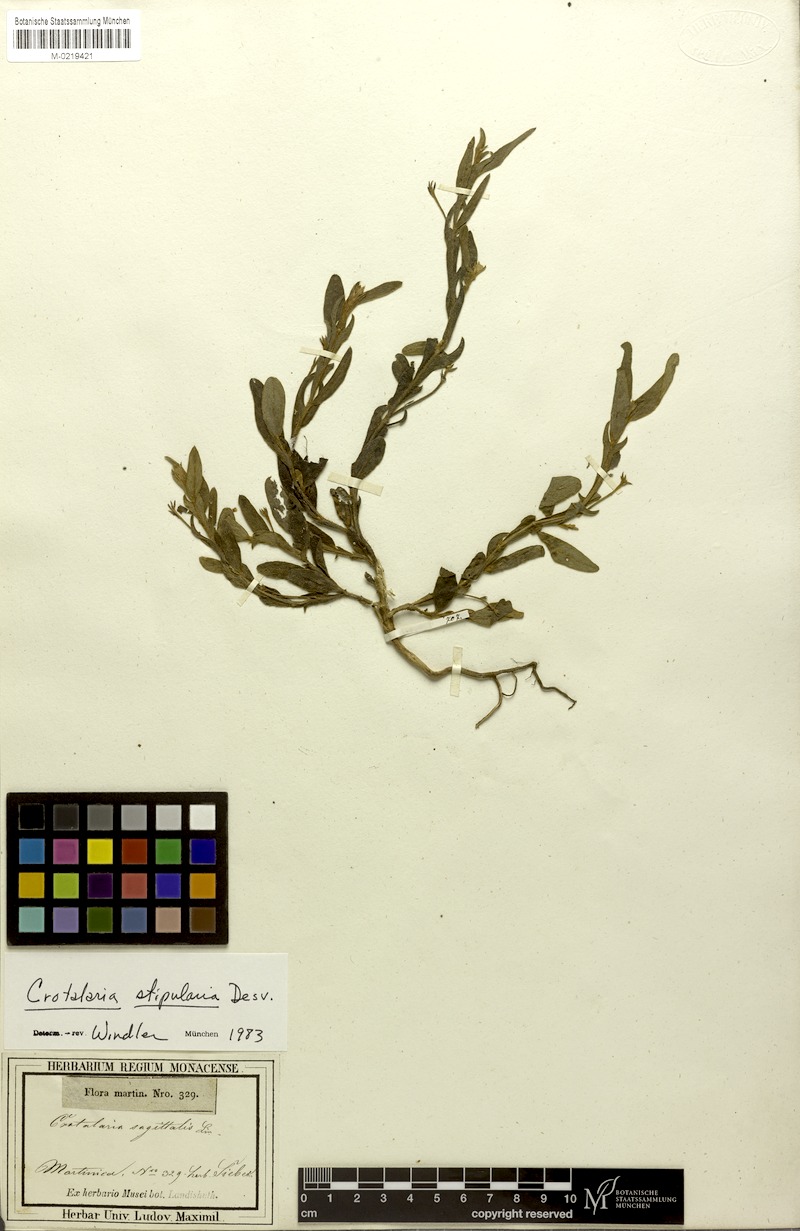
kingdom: Plantae
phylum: Tracheophyta
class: Magnoliopsida
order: Fabales
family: Fabaceae
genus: Crotalaria
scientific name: Crotalaria stipularia
